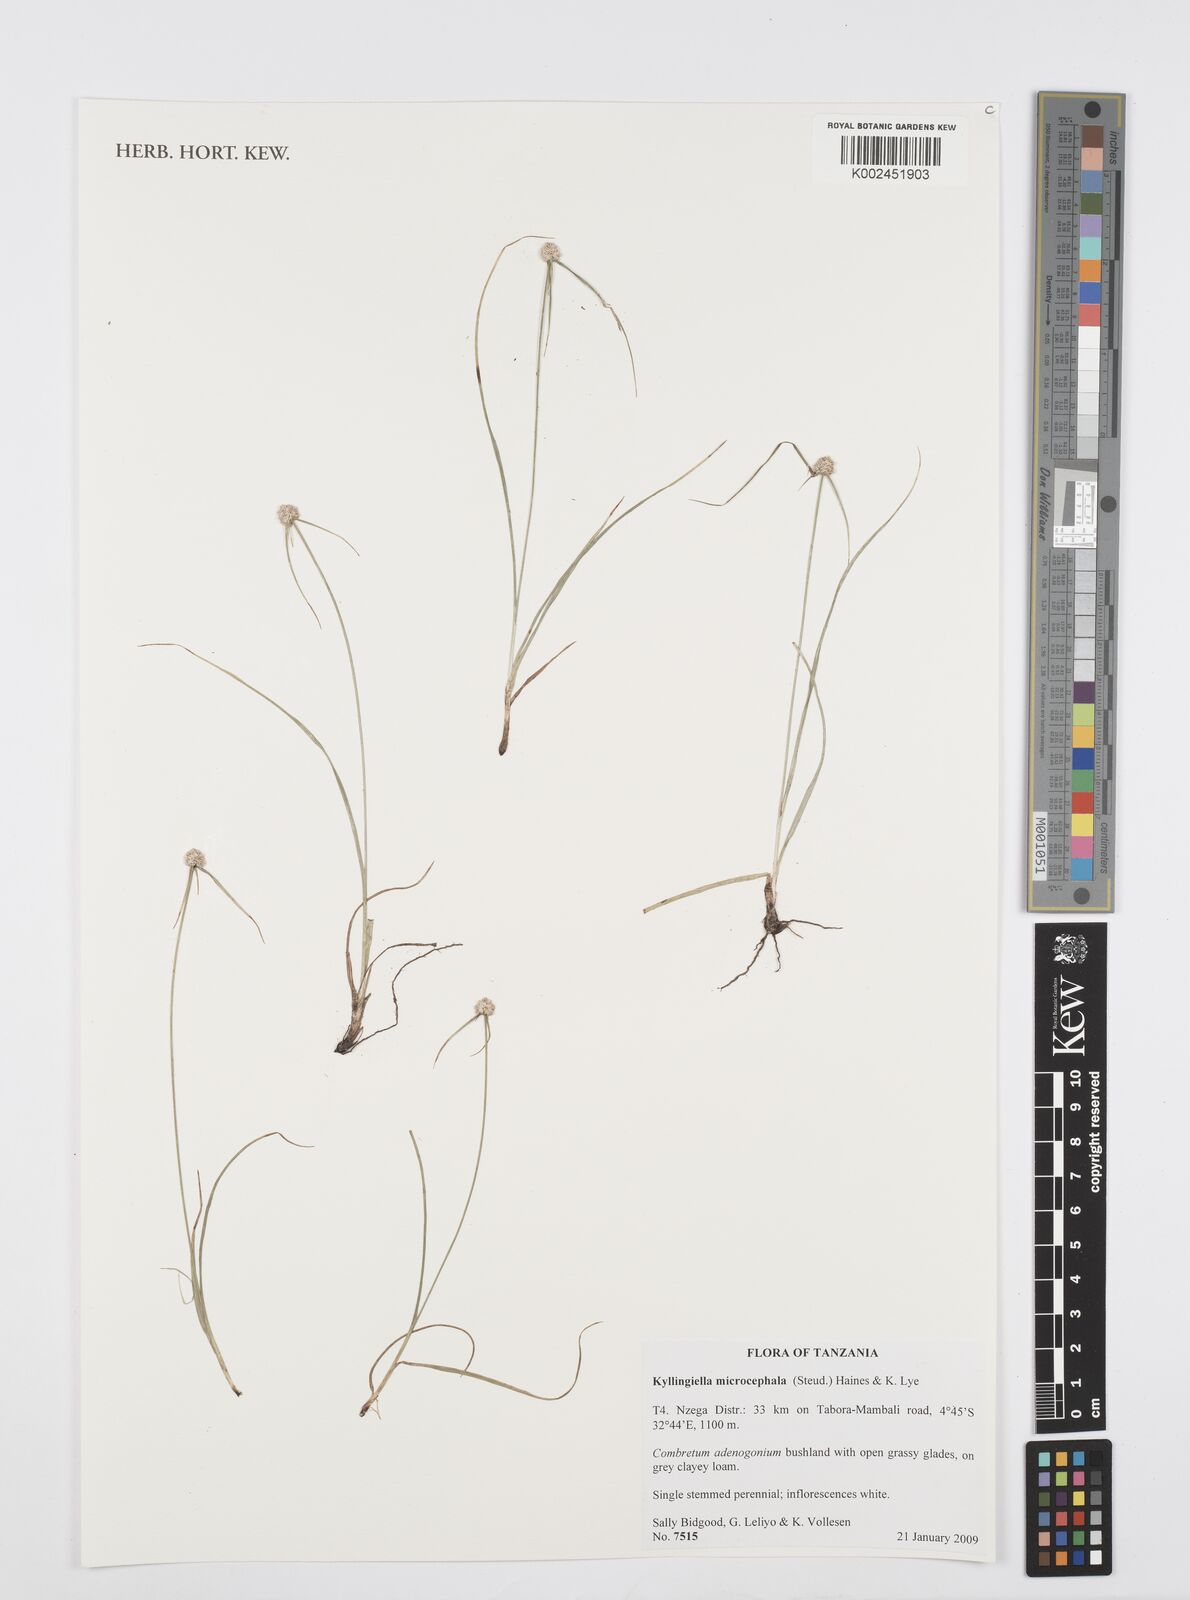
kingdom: Plantae
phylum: Tracheophyta
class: Liliopsida
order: Poales
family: Cyperaceae
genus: Cyperus
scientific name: Cyperus microcephalus
